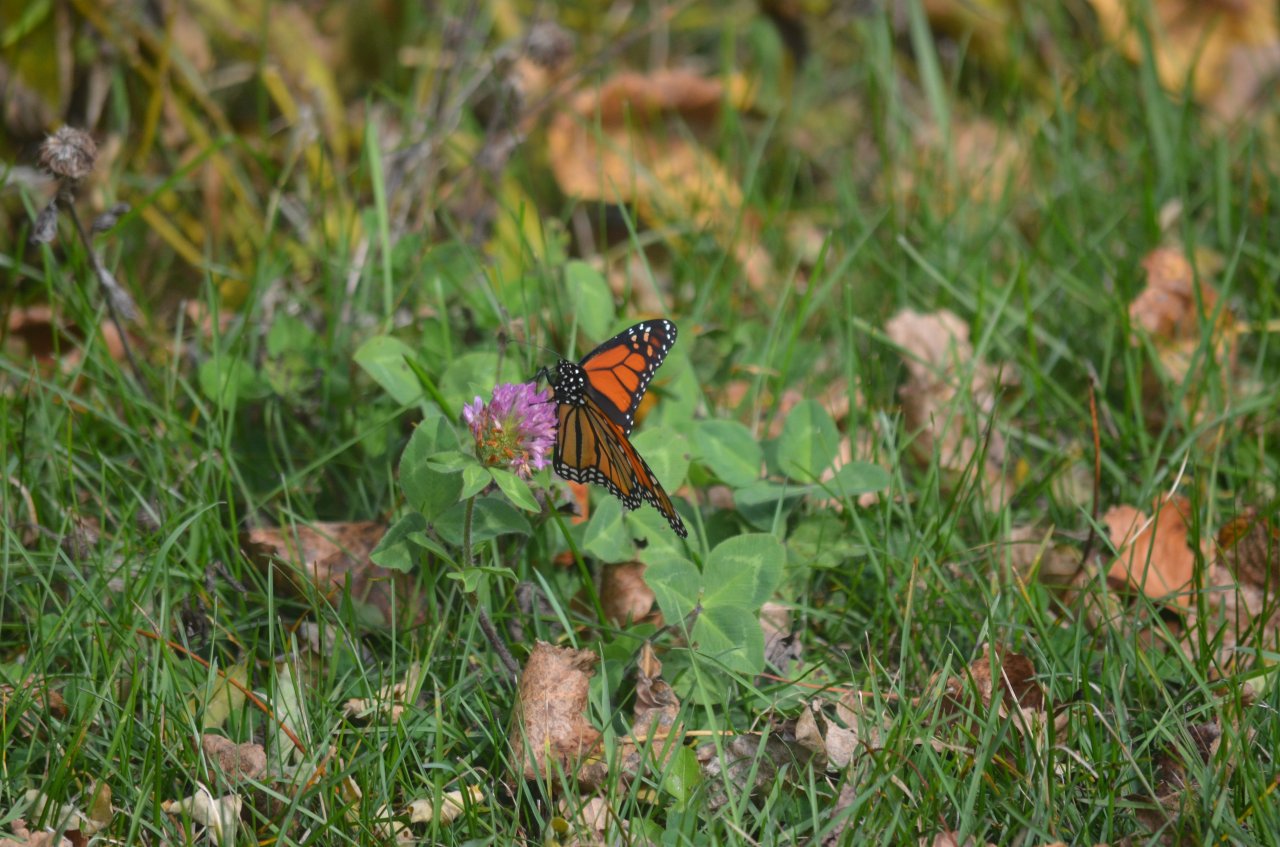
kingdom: Animalia
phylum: Arthropoda
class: Insecta
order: Lepidoptera
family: Nymphalidae
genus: Danaus
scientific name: Danaus plexippus
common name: Monarch
